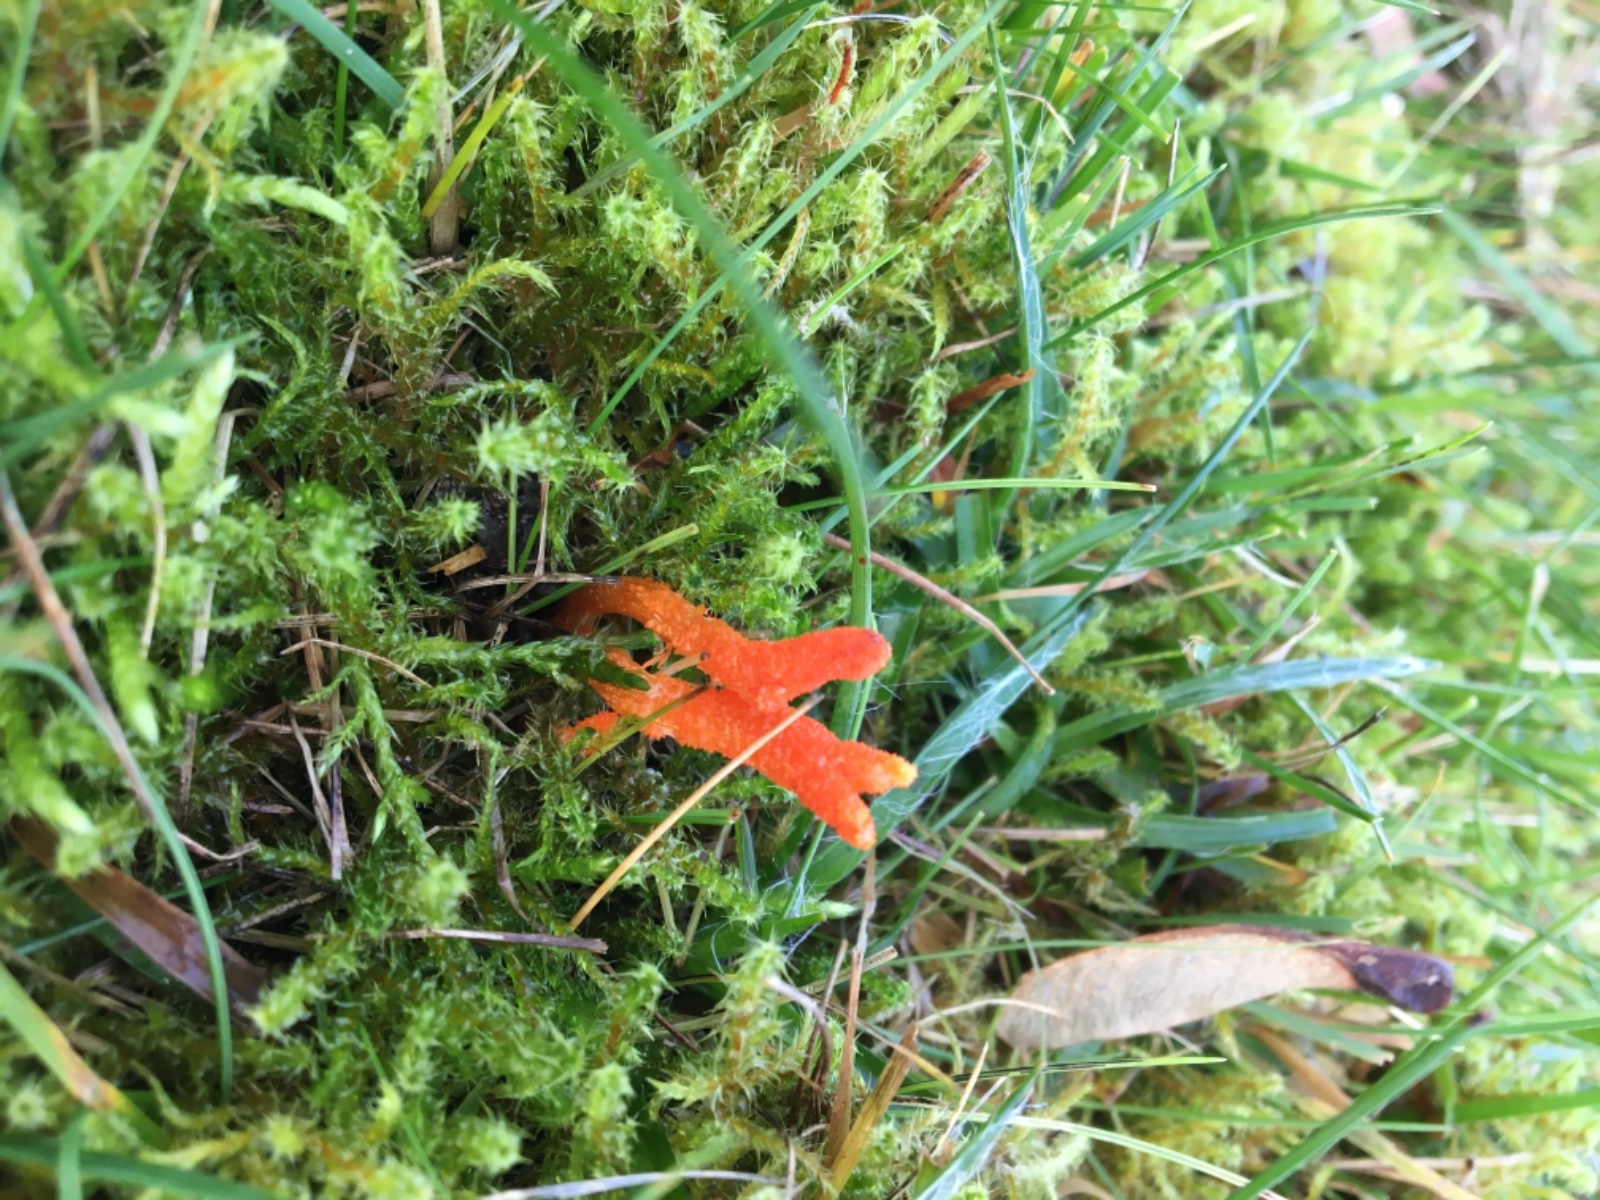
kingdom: Fungi
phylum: Ascomycota
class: Sordariomycetes
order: Hypocreales
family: Cordycipitaceae
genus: Cordyceps
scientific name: Cordyceps militaris
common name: puppe-snyltekølle
